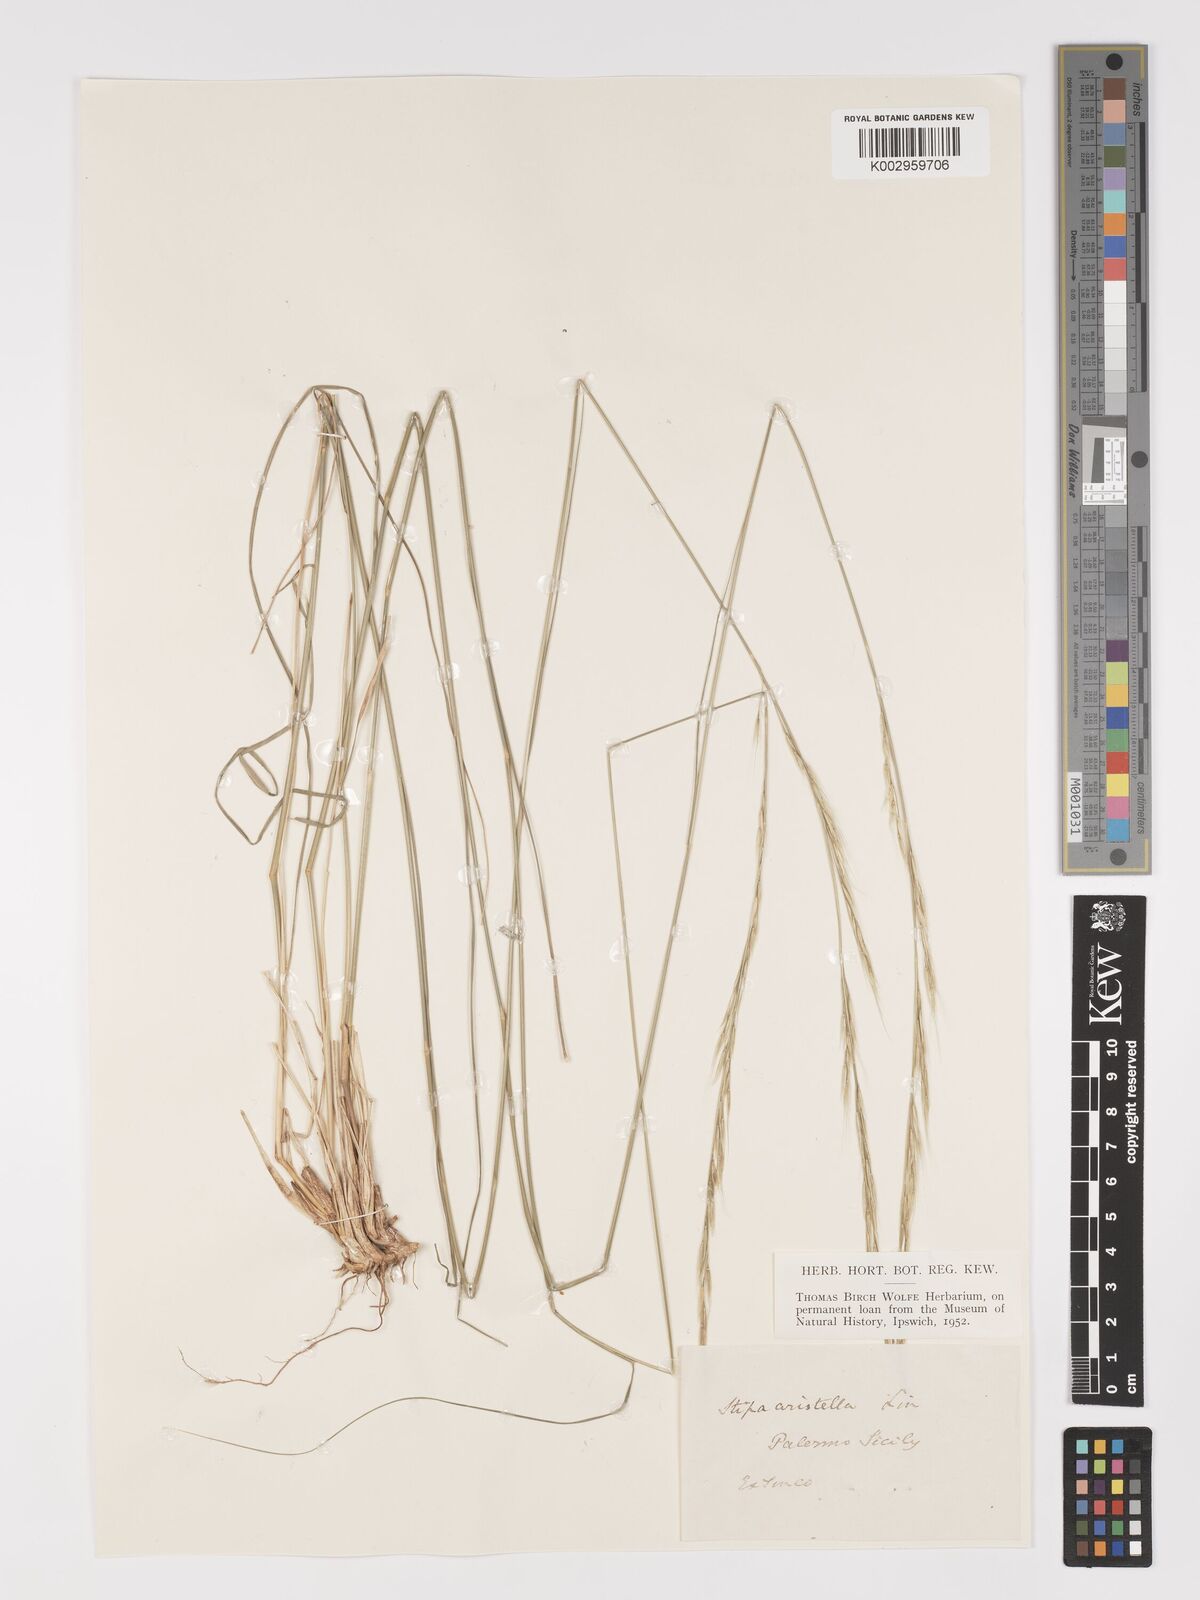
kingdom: Plantae
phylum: Tracheophyta
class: Liliopsida
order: Poales
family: Poaceae
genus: Achnatherum
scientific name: Achnatherum bromoides
